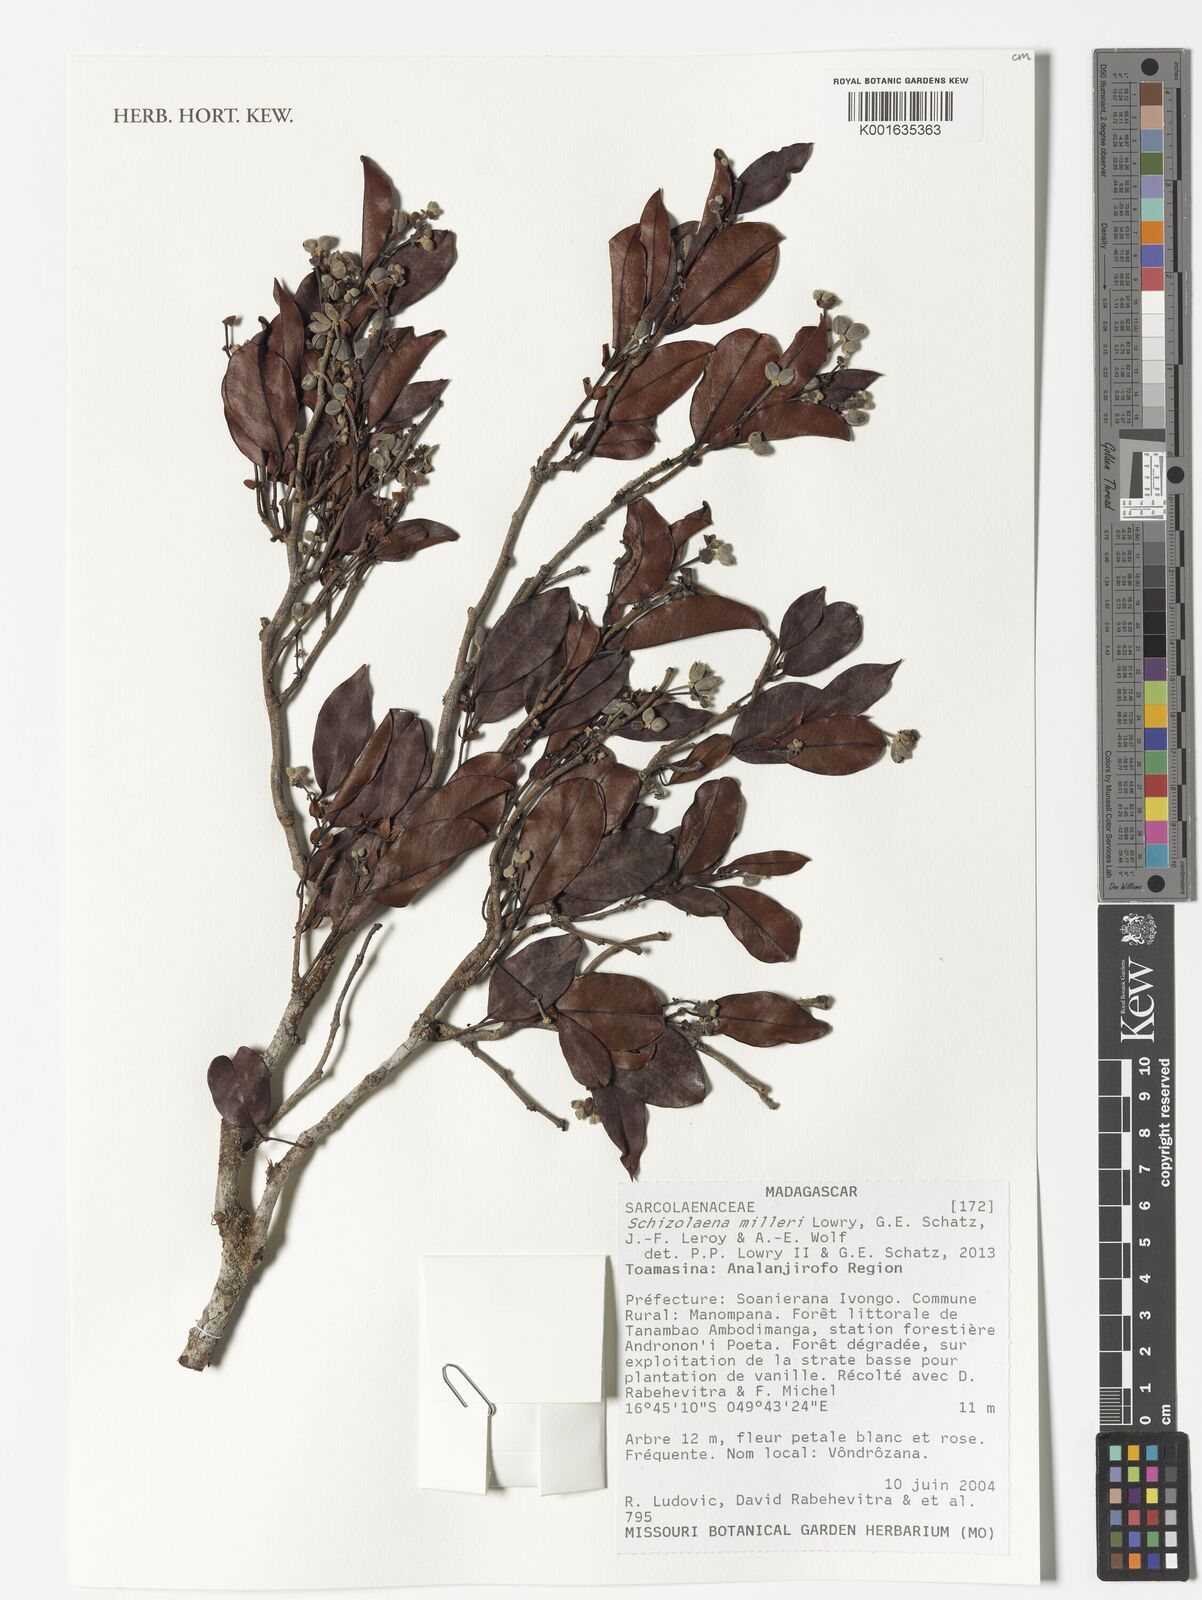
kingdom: Plantae
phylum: Tracheophyta
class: Magnoliopsida
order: Malvales
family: Sarcolaenaceae
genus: Schizolaena
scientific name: Schizolaena milleri
